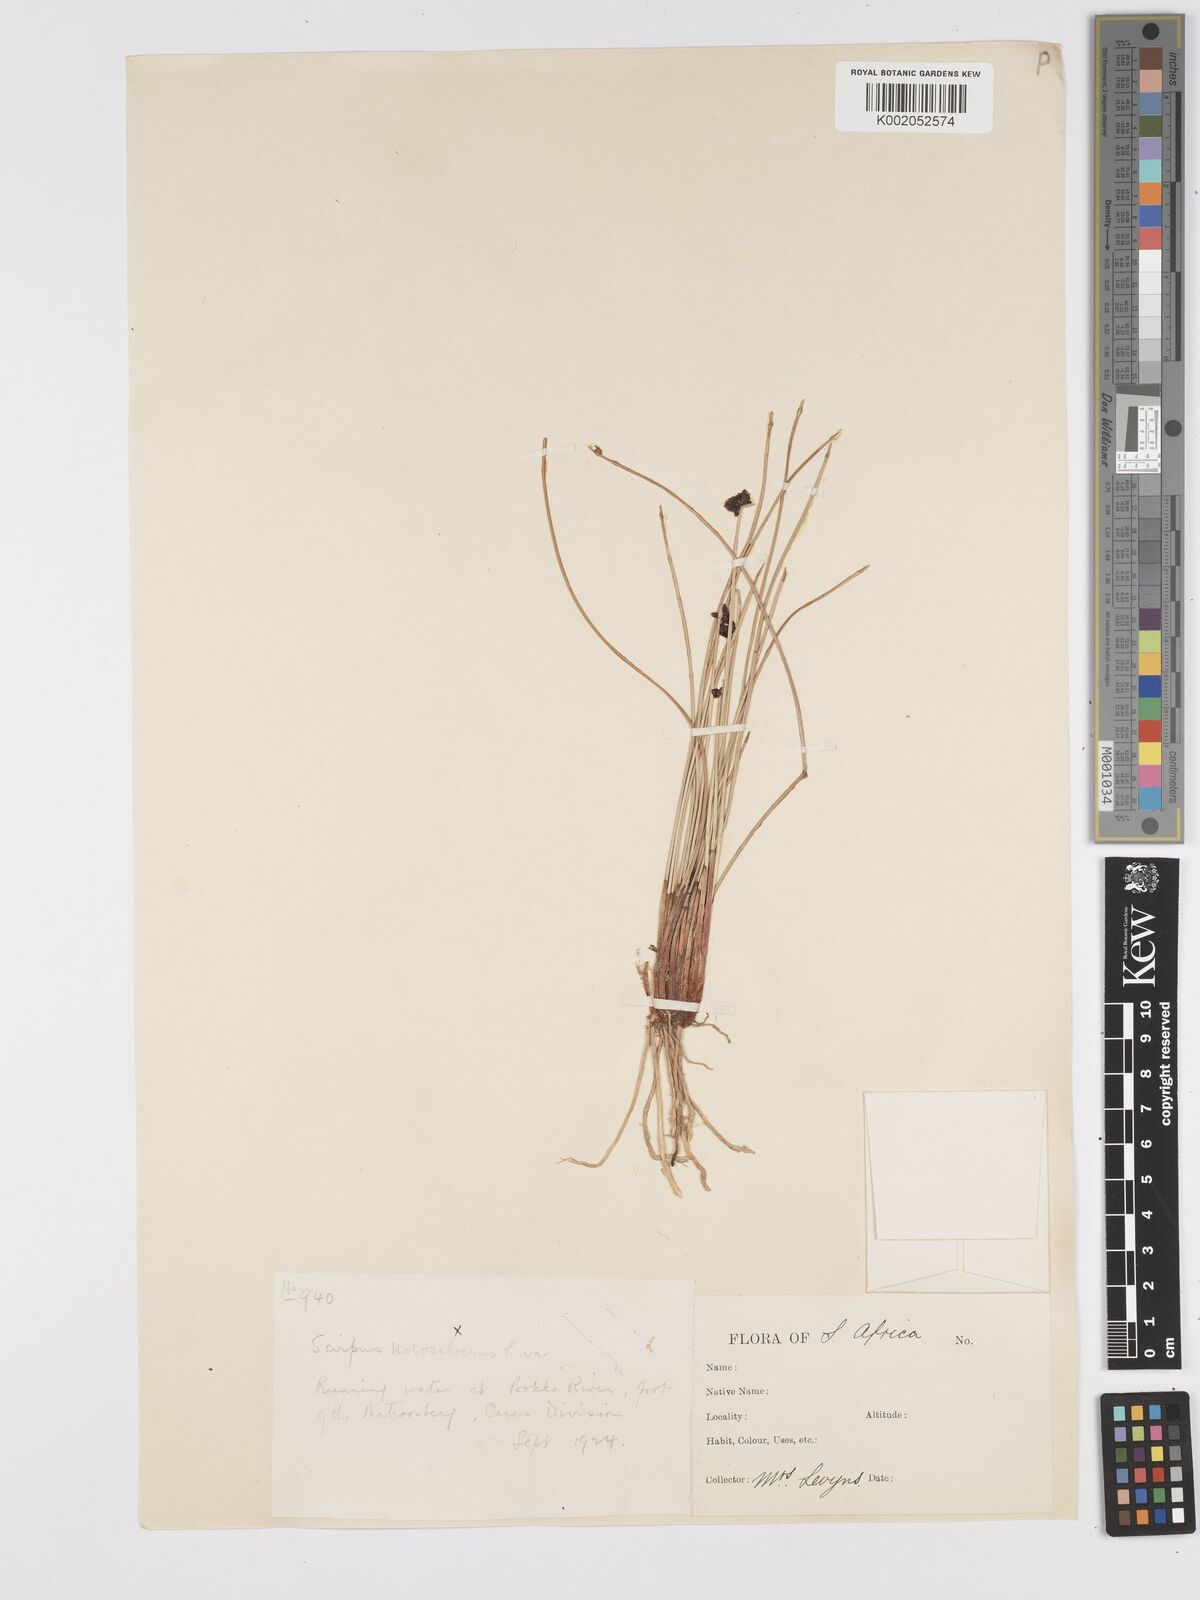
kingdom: Plantae
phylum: Tracheophyta
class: Liliopsida
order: Poales
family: Cyperaceae
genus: Scirpus
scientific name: Scirpus
